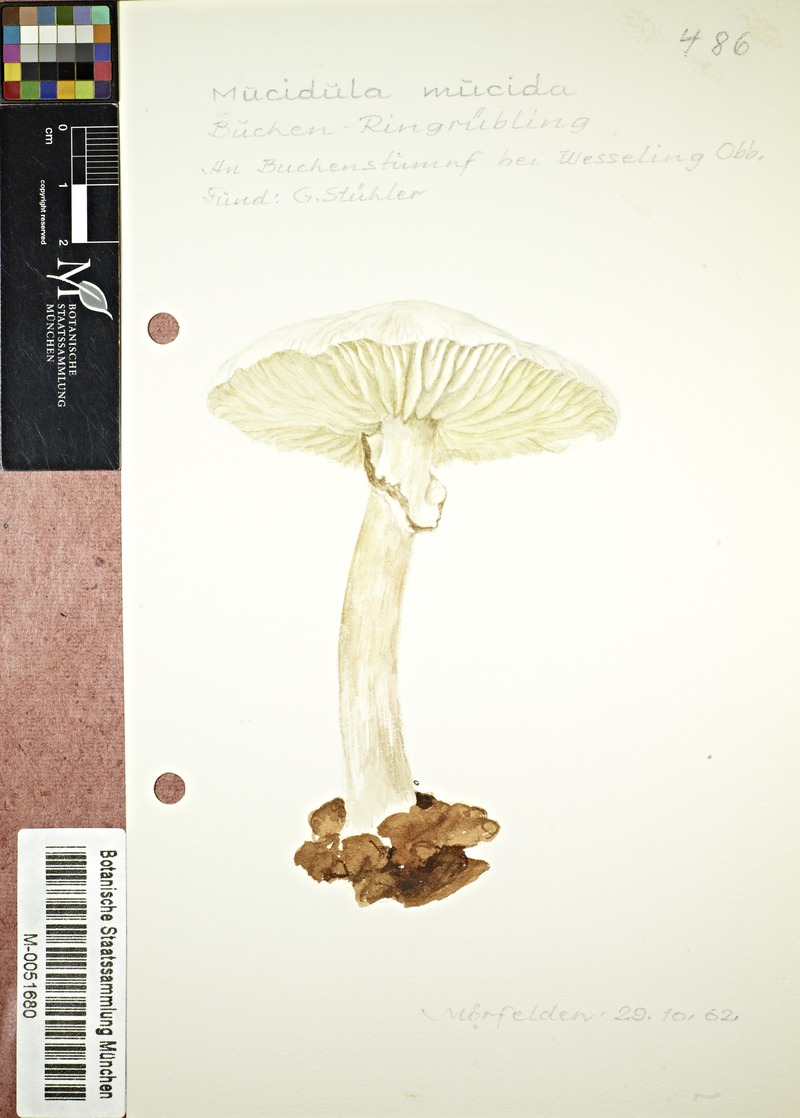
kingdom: Fungi
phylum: Basidiomycota
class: Agaricomycetes
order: Agaricales
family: Physalacriaceae
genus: Mucidula
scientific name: Mucidula mucida
